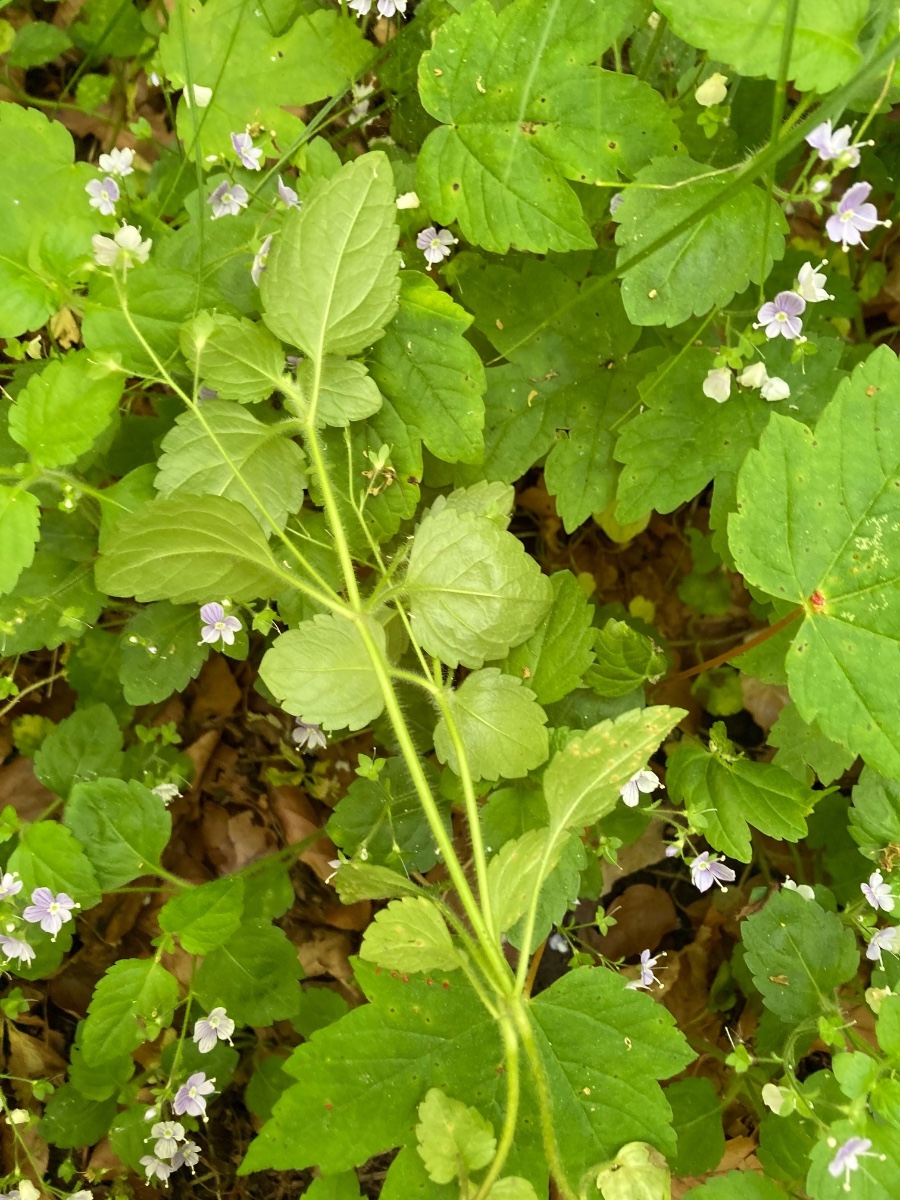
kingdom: Fungi
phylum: Basidiomycota
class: Pucciniomycetes
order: Pucciniales
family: Pucciniaceae
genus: Puccinia
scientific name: Puccinia albulensis
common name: Alpine veronica rust
